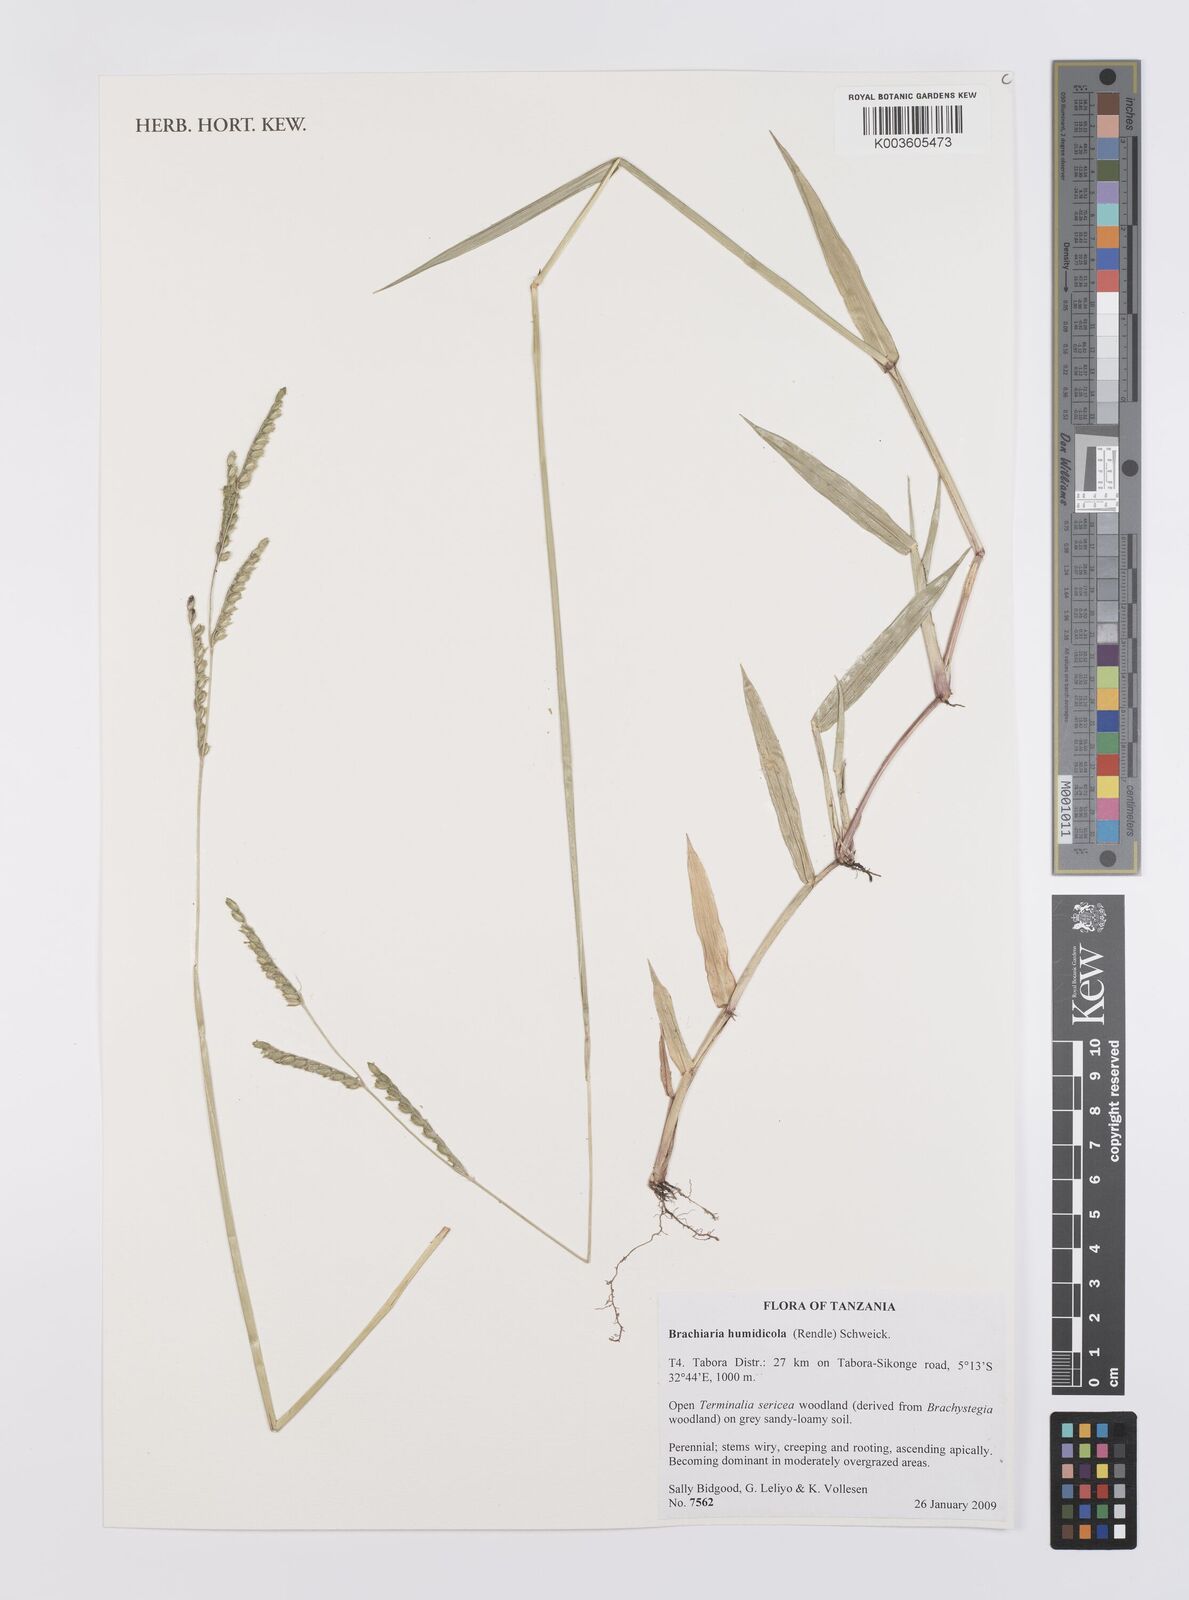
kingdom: Plantae
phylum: Tracheophyta
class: Liliopsida
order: Poales
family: Poaceae
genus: Urochloa
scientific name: Urochloa dictyoneura
